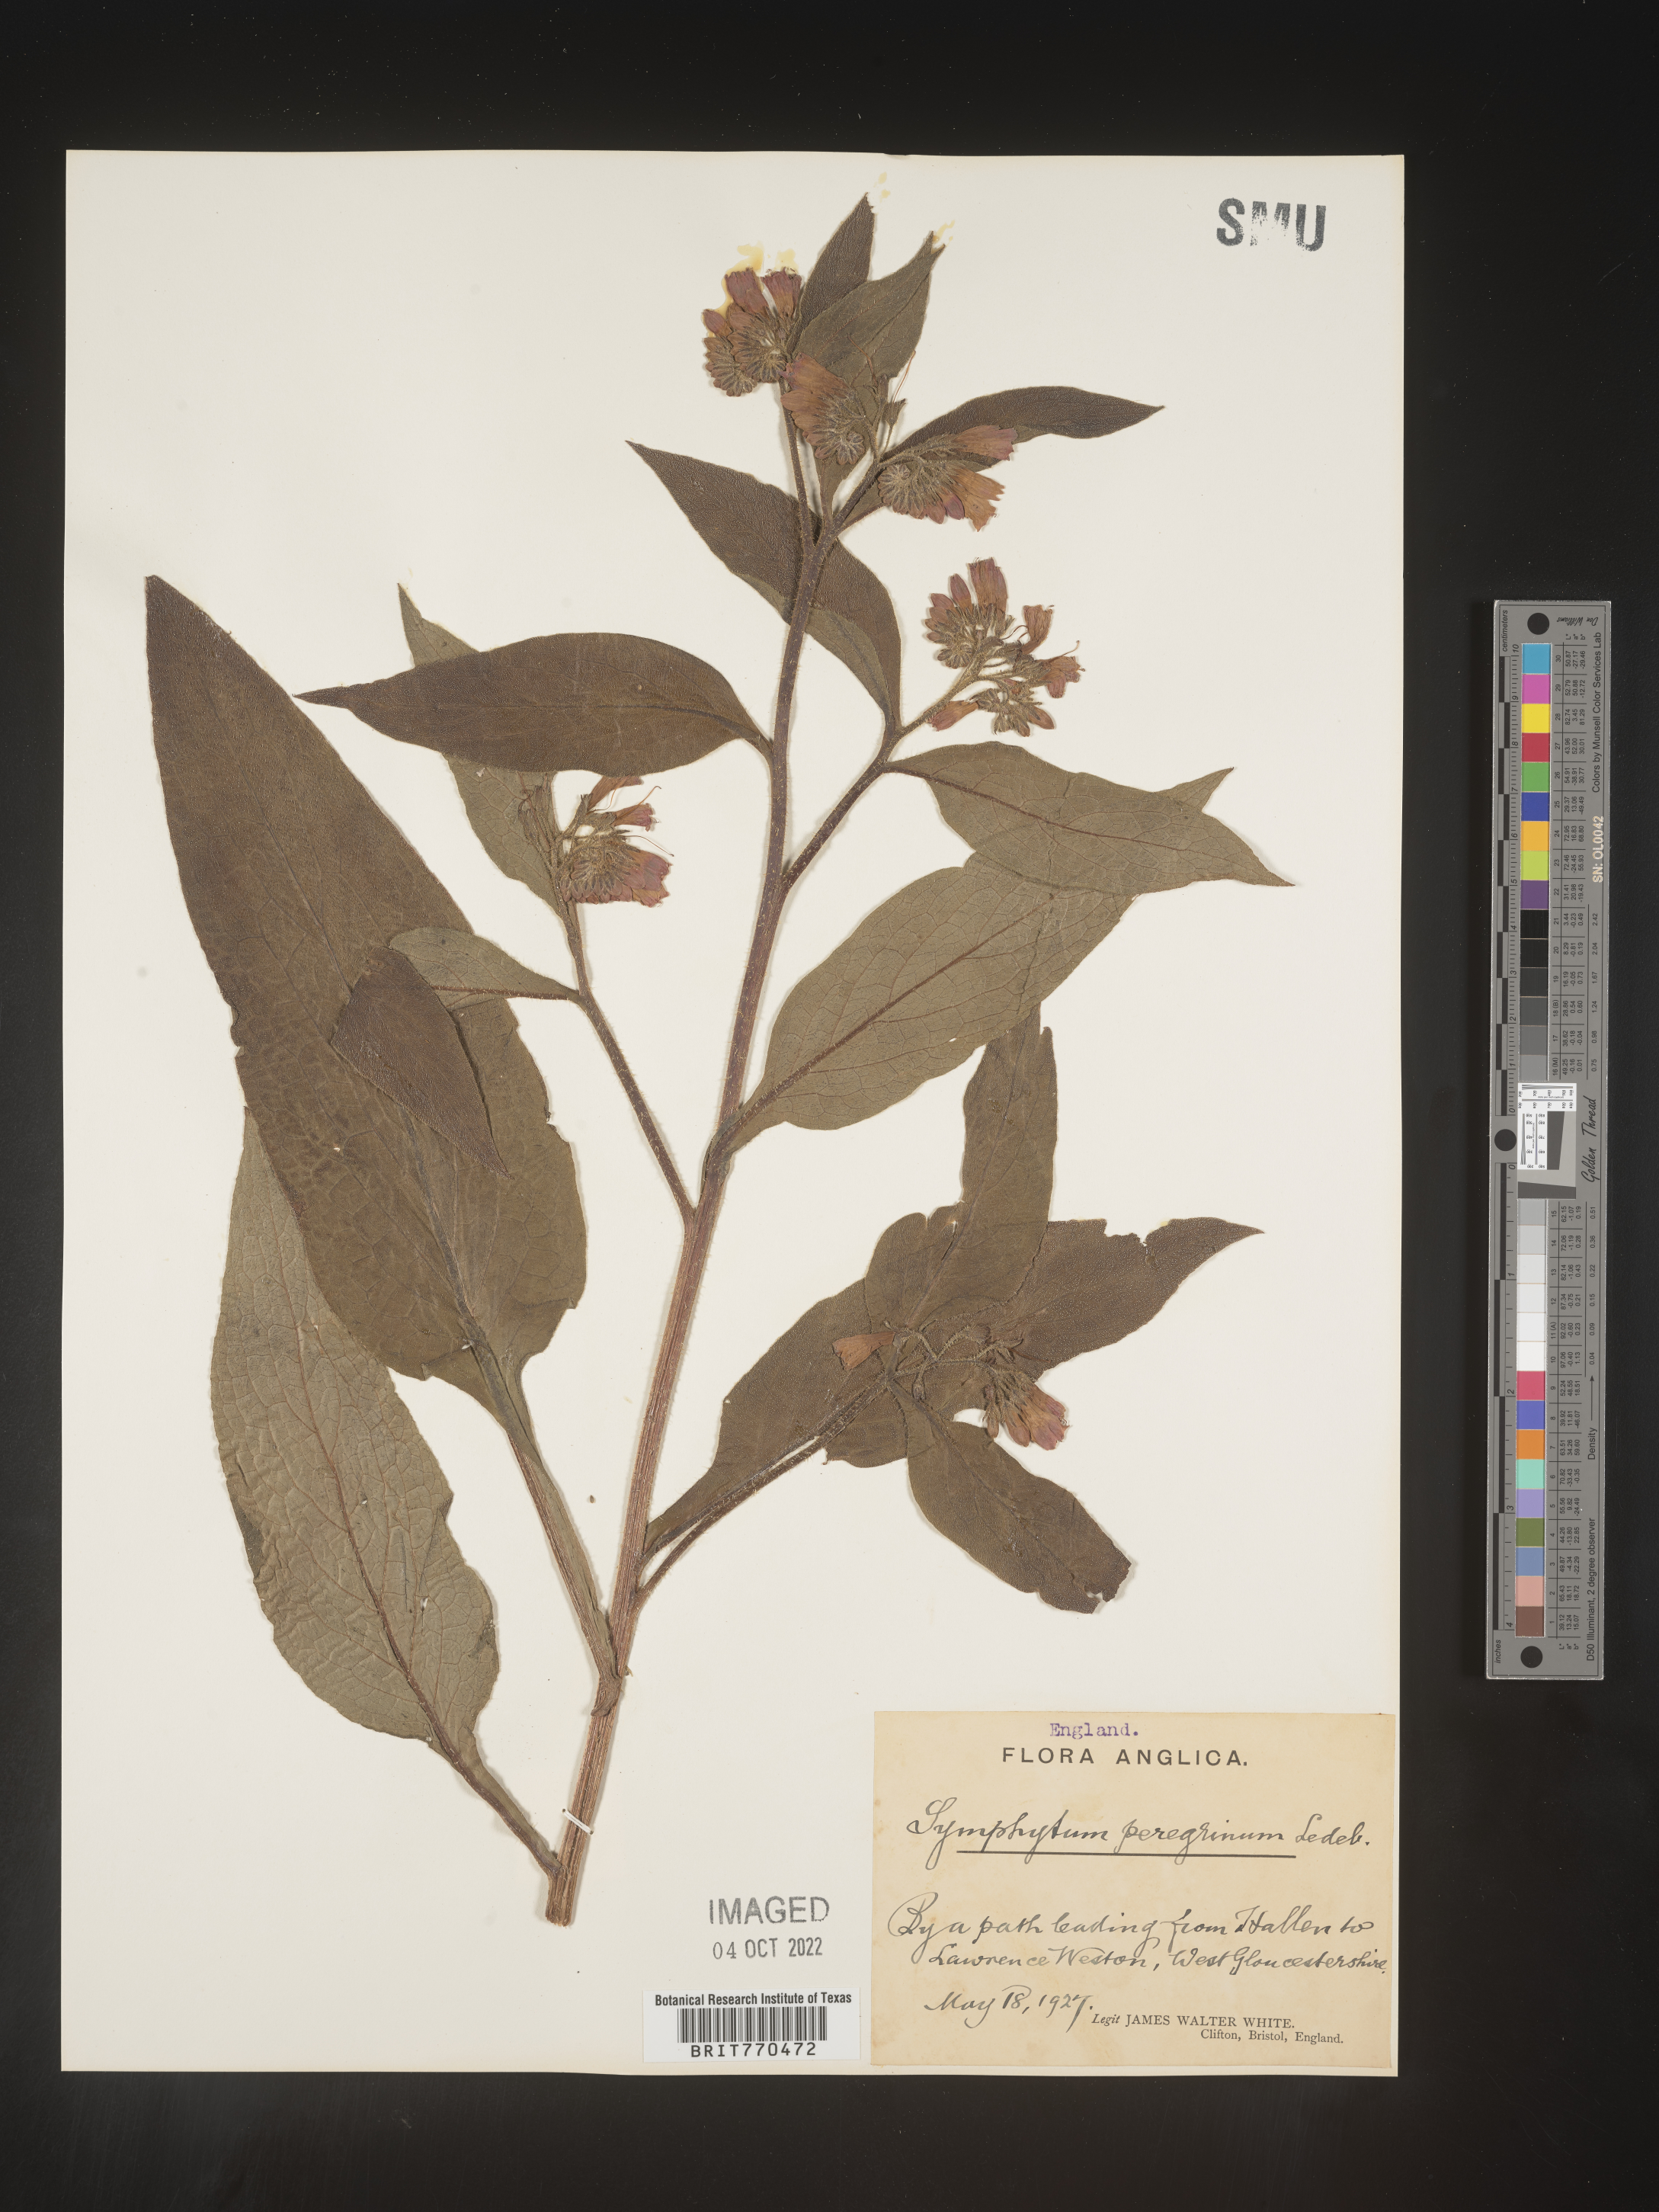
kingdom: Plantae
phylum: Tracheophyta
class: Magnoliopsida
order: Boraginales
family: Boraginaceae
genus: Symphytum
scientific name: Symphytum
